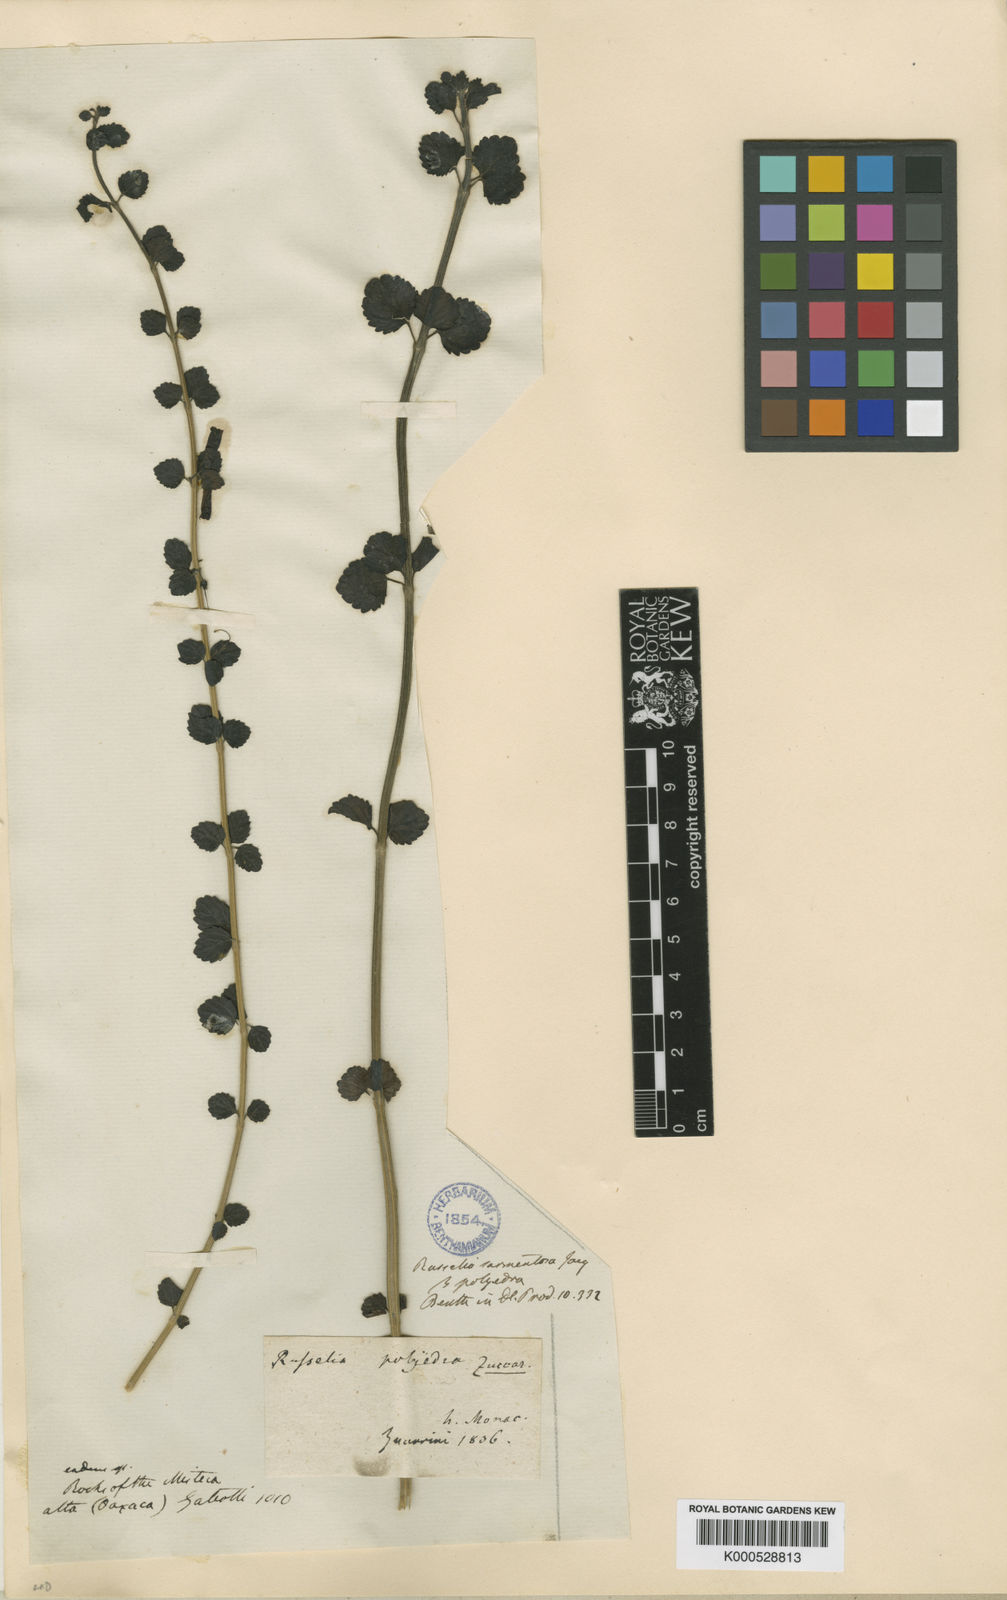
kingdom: Plantae
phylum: Tracheophyta
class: Magnoliopsida
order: Lamiales
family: Plantaginaceae
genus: Russelia
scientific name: Russelia polyedra
